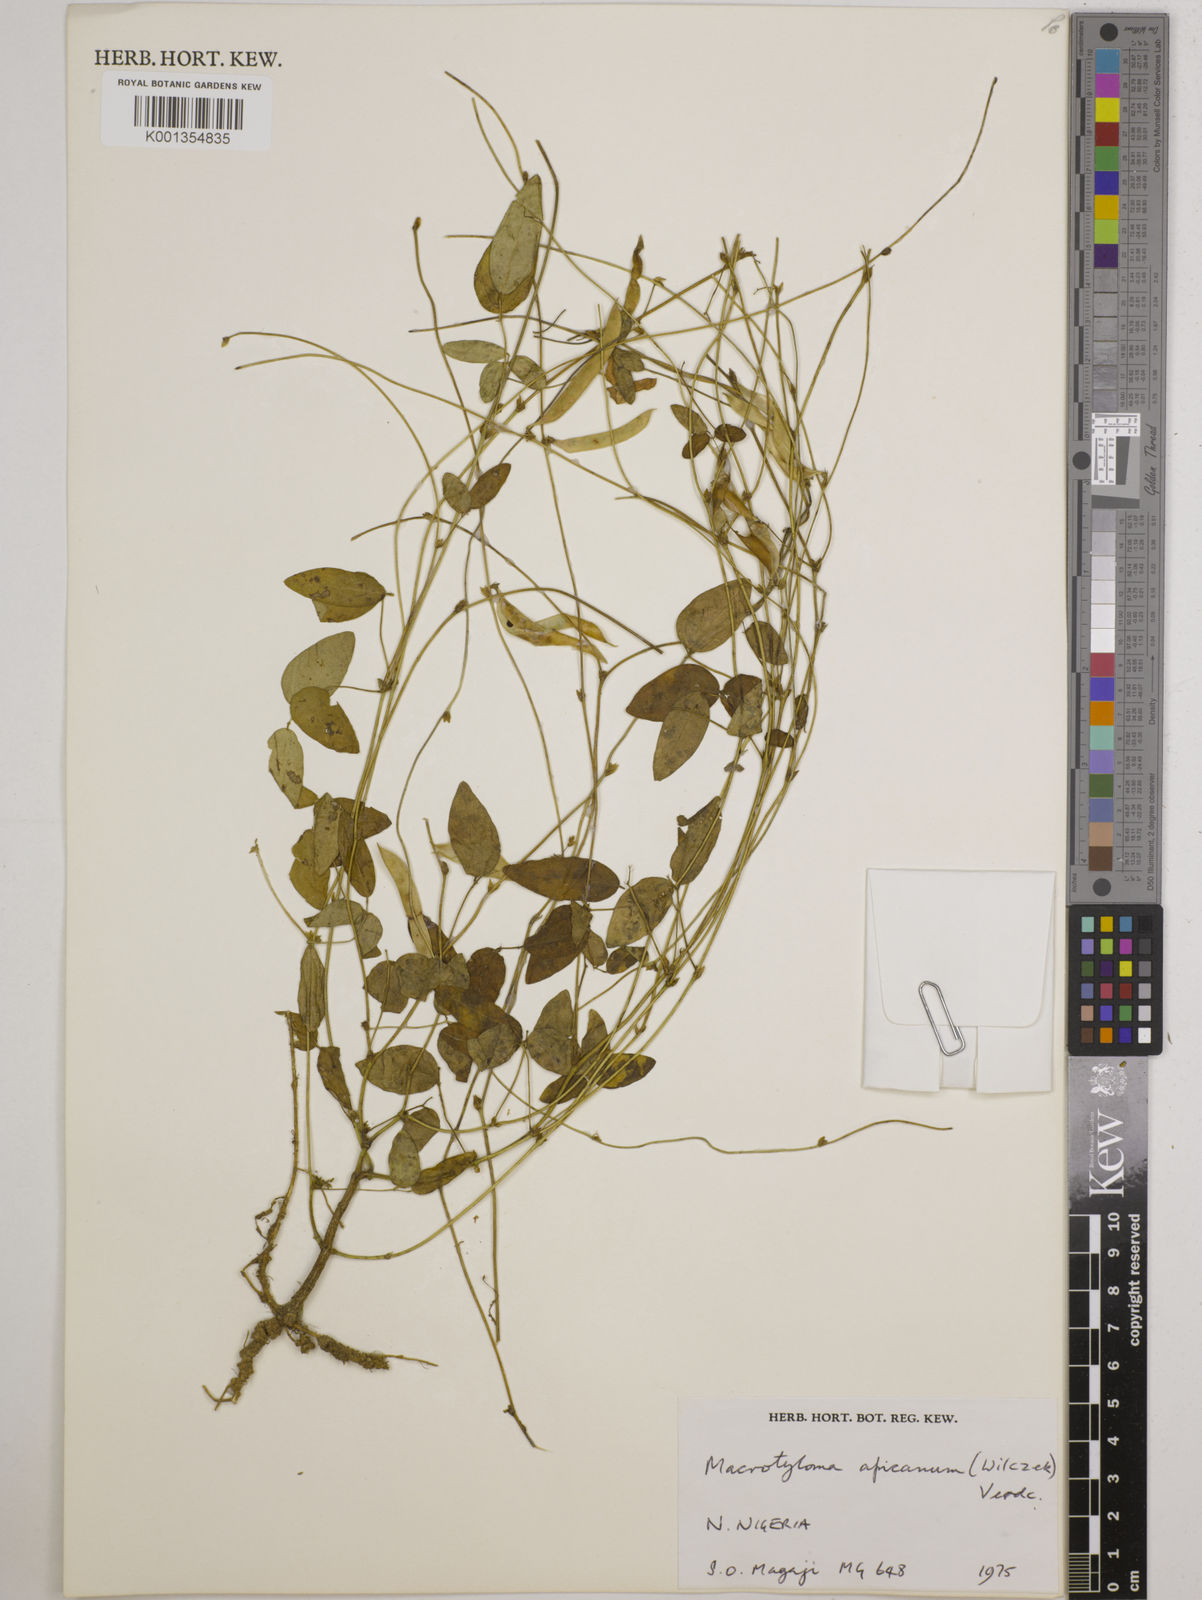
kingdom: Plantae
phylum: Tracheophyta
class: Magnoliopsida
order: Fabales
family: Fabaceae
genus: Macrotyloma
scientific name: Macrotyloma africanum
